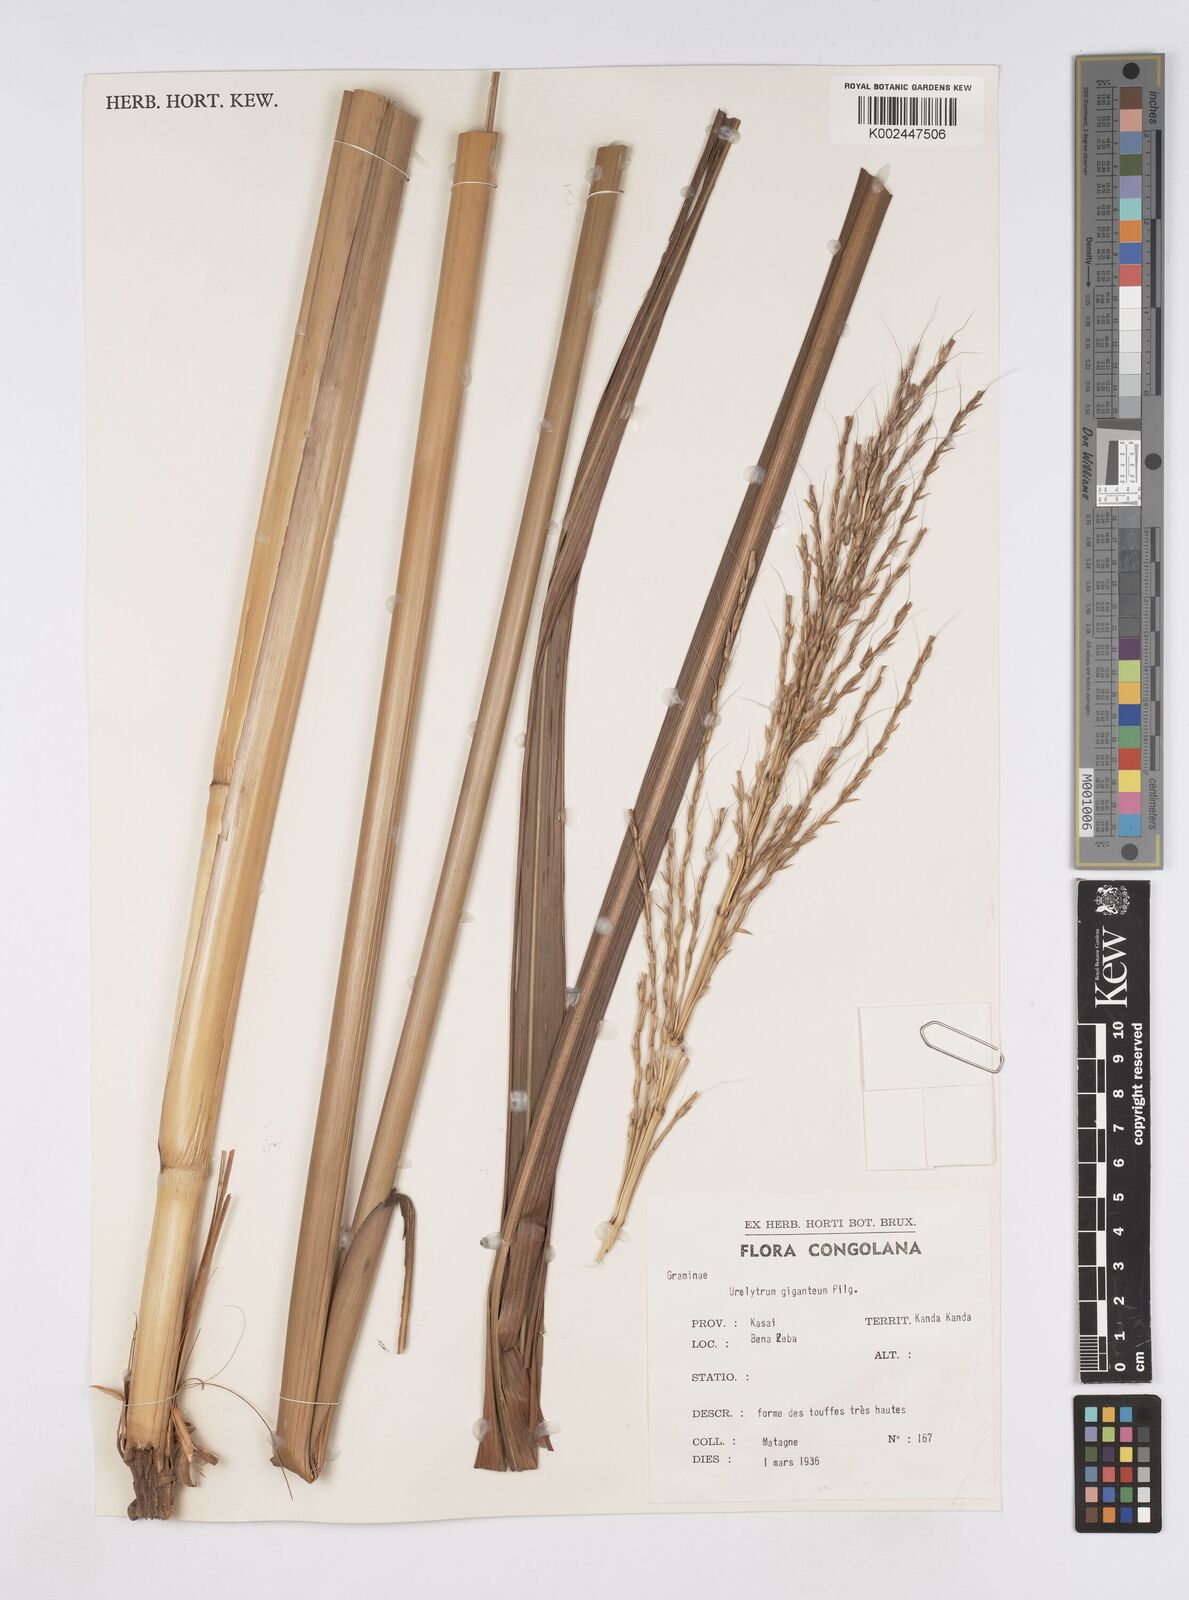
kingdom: Plantae
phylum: Tracheophyta
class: Liliopsida
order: Poales
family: Poaceae
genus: Urelytrum
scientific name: Urelytrum giganteum
